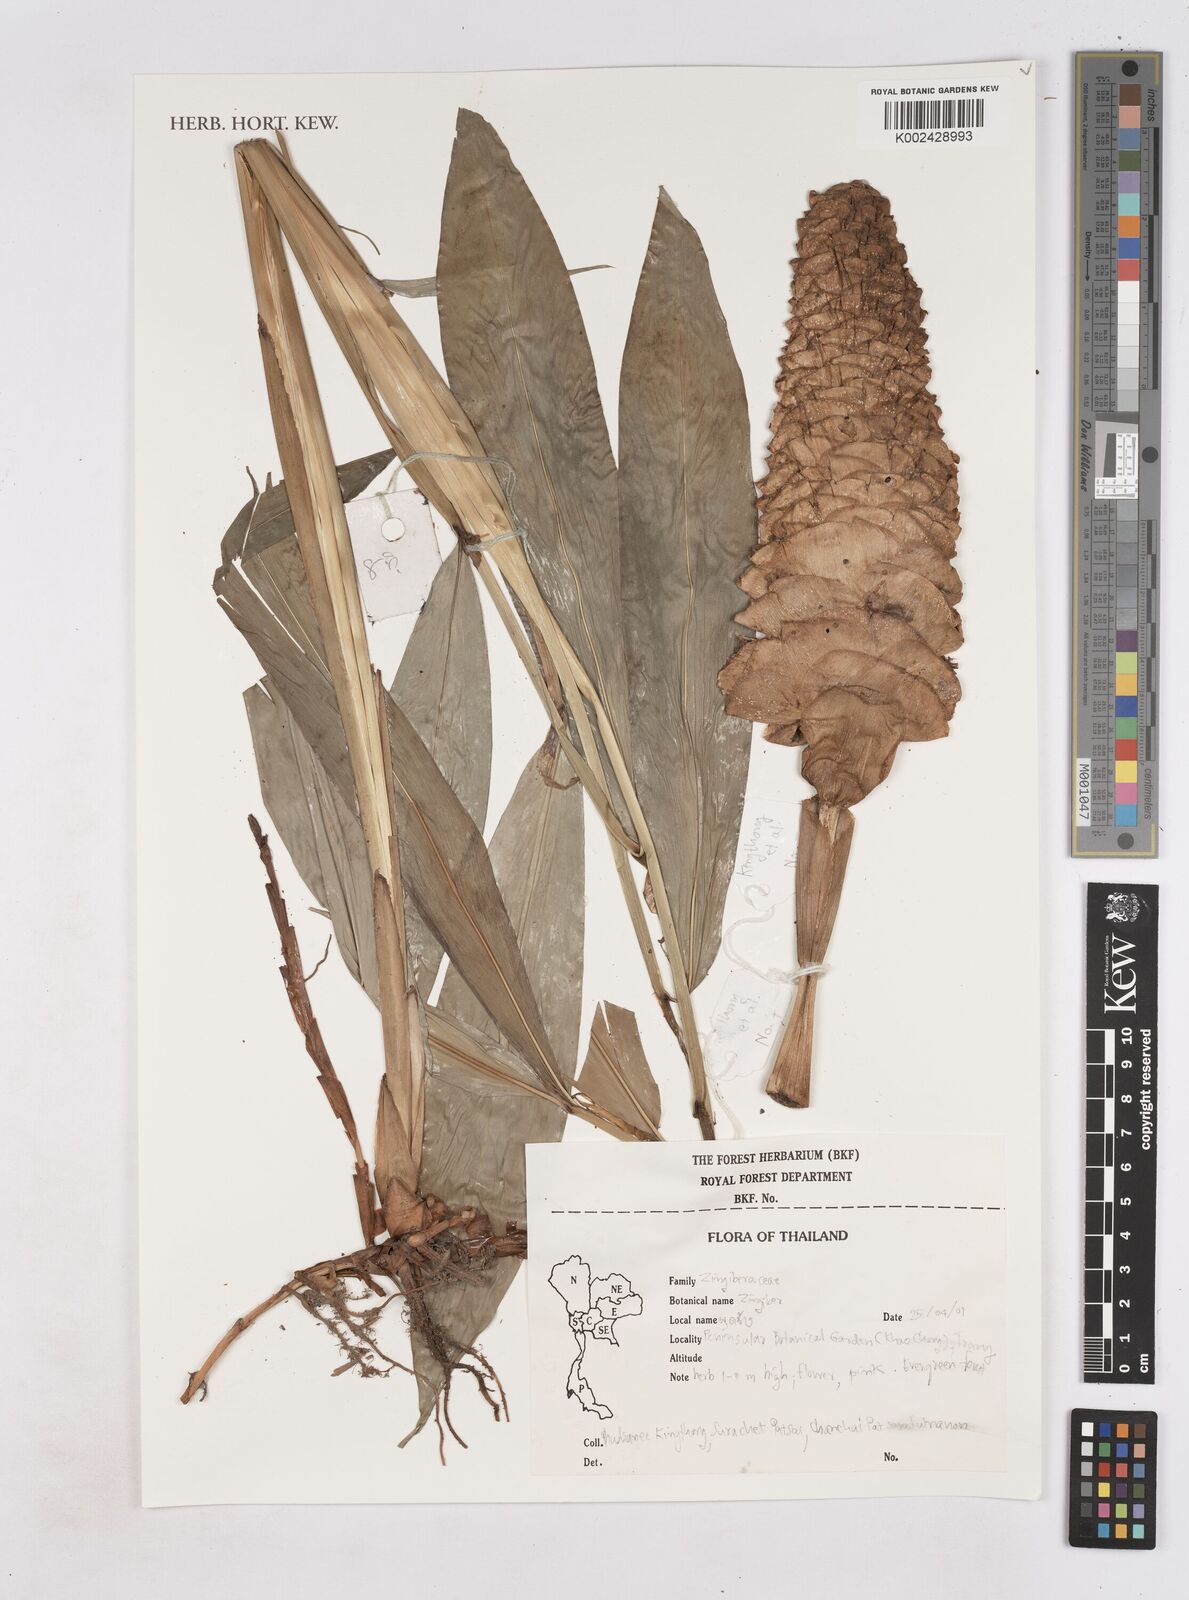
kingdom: Plantae
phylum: Tracheophyta
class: Liliopsida
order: Zingiberales
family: Zingiberaceae
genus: Zingiber
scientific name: Zingiber
